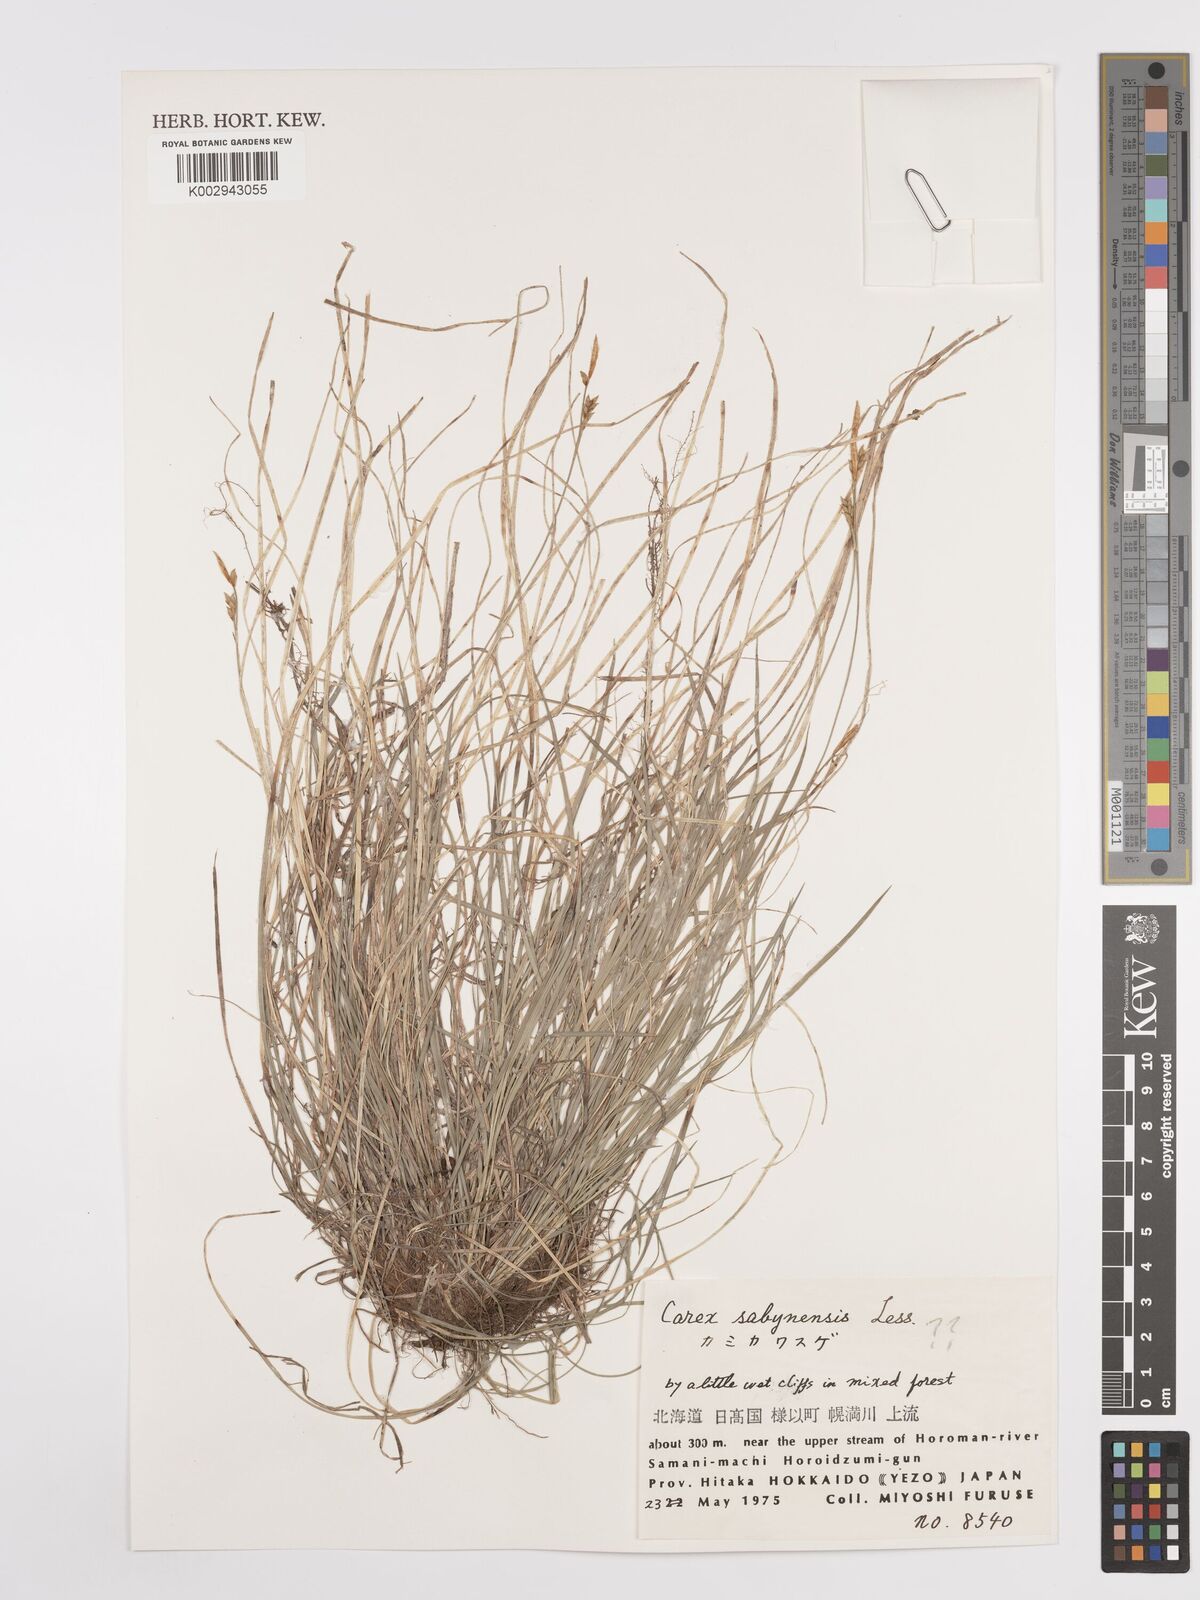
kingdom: Plantae
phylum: Tracheophyta
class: Liliopsida
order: Poales
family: Cyperaceae
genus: Carex
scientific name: Carex sacrosancta
